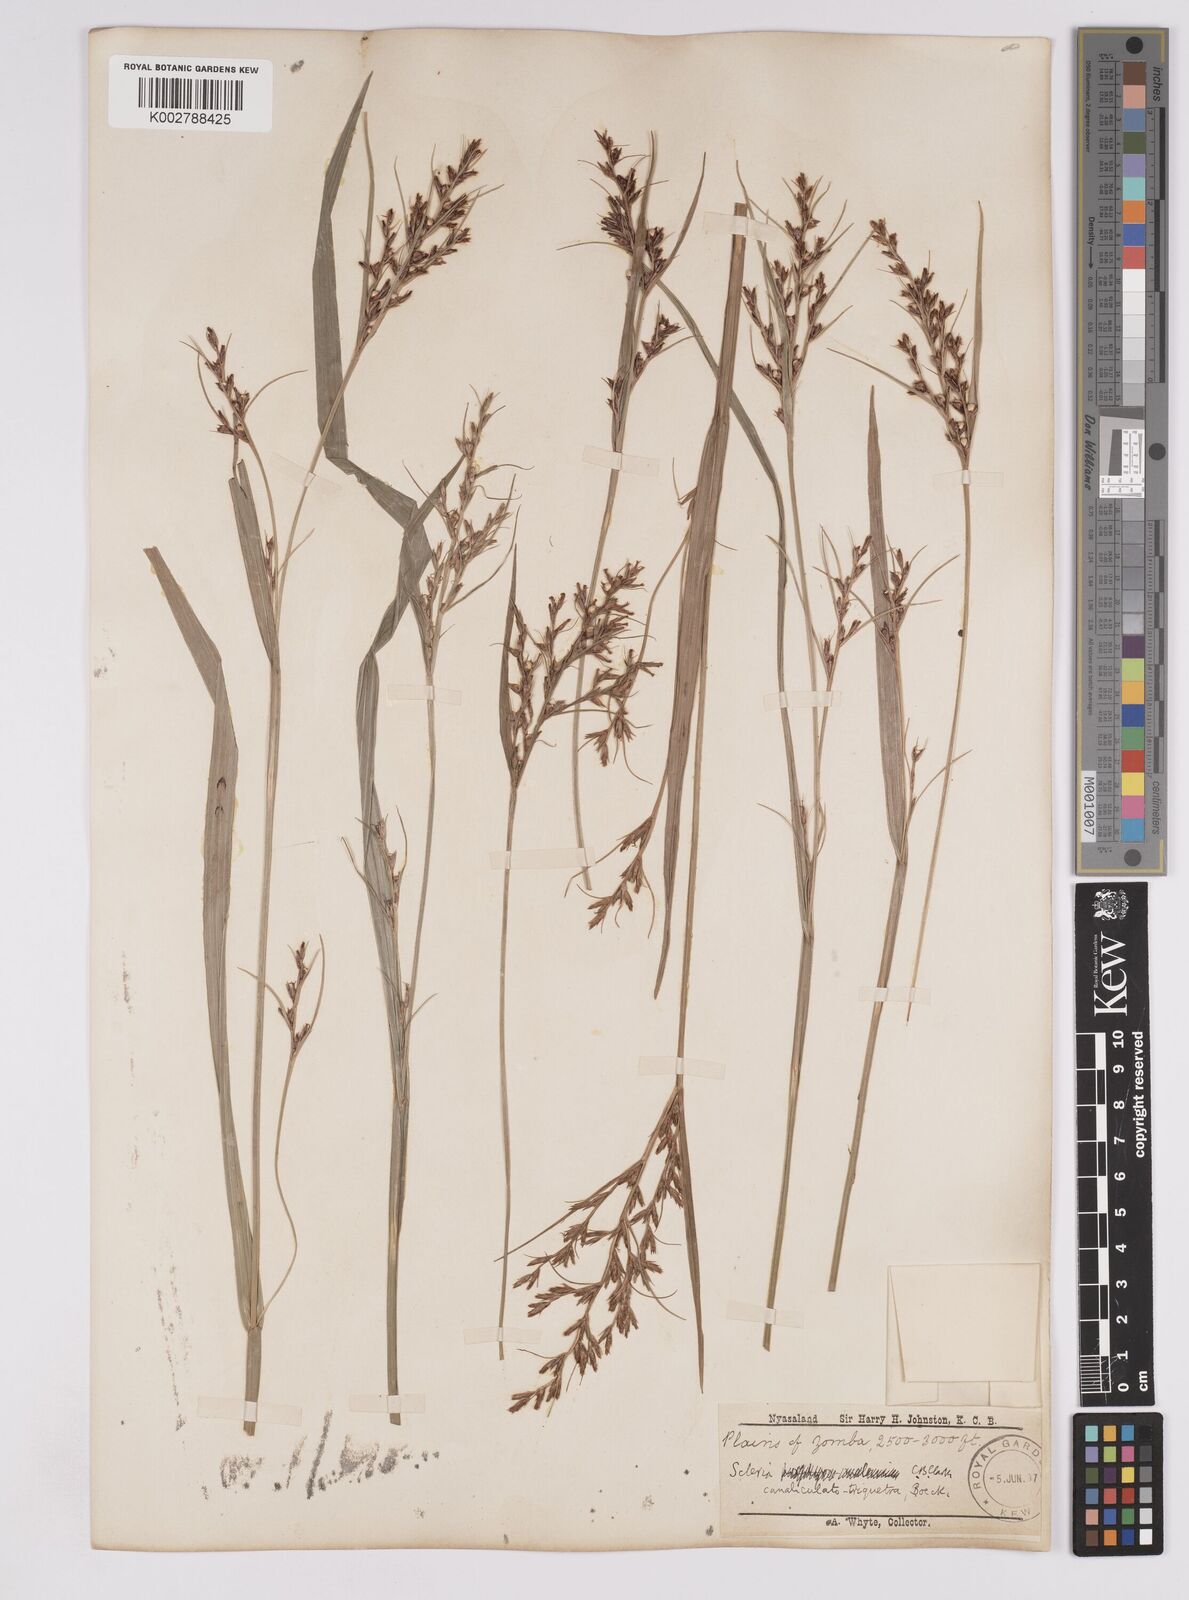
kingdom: Plantae
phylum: Tracheophyta
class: Liliopsida
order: Poales
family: Cyperaceae
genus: Scleria
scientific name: Scleria lagoensis
